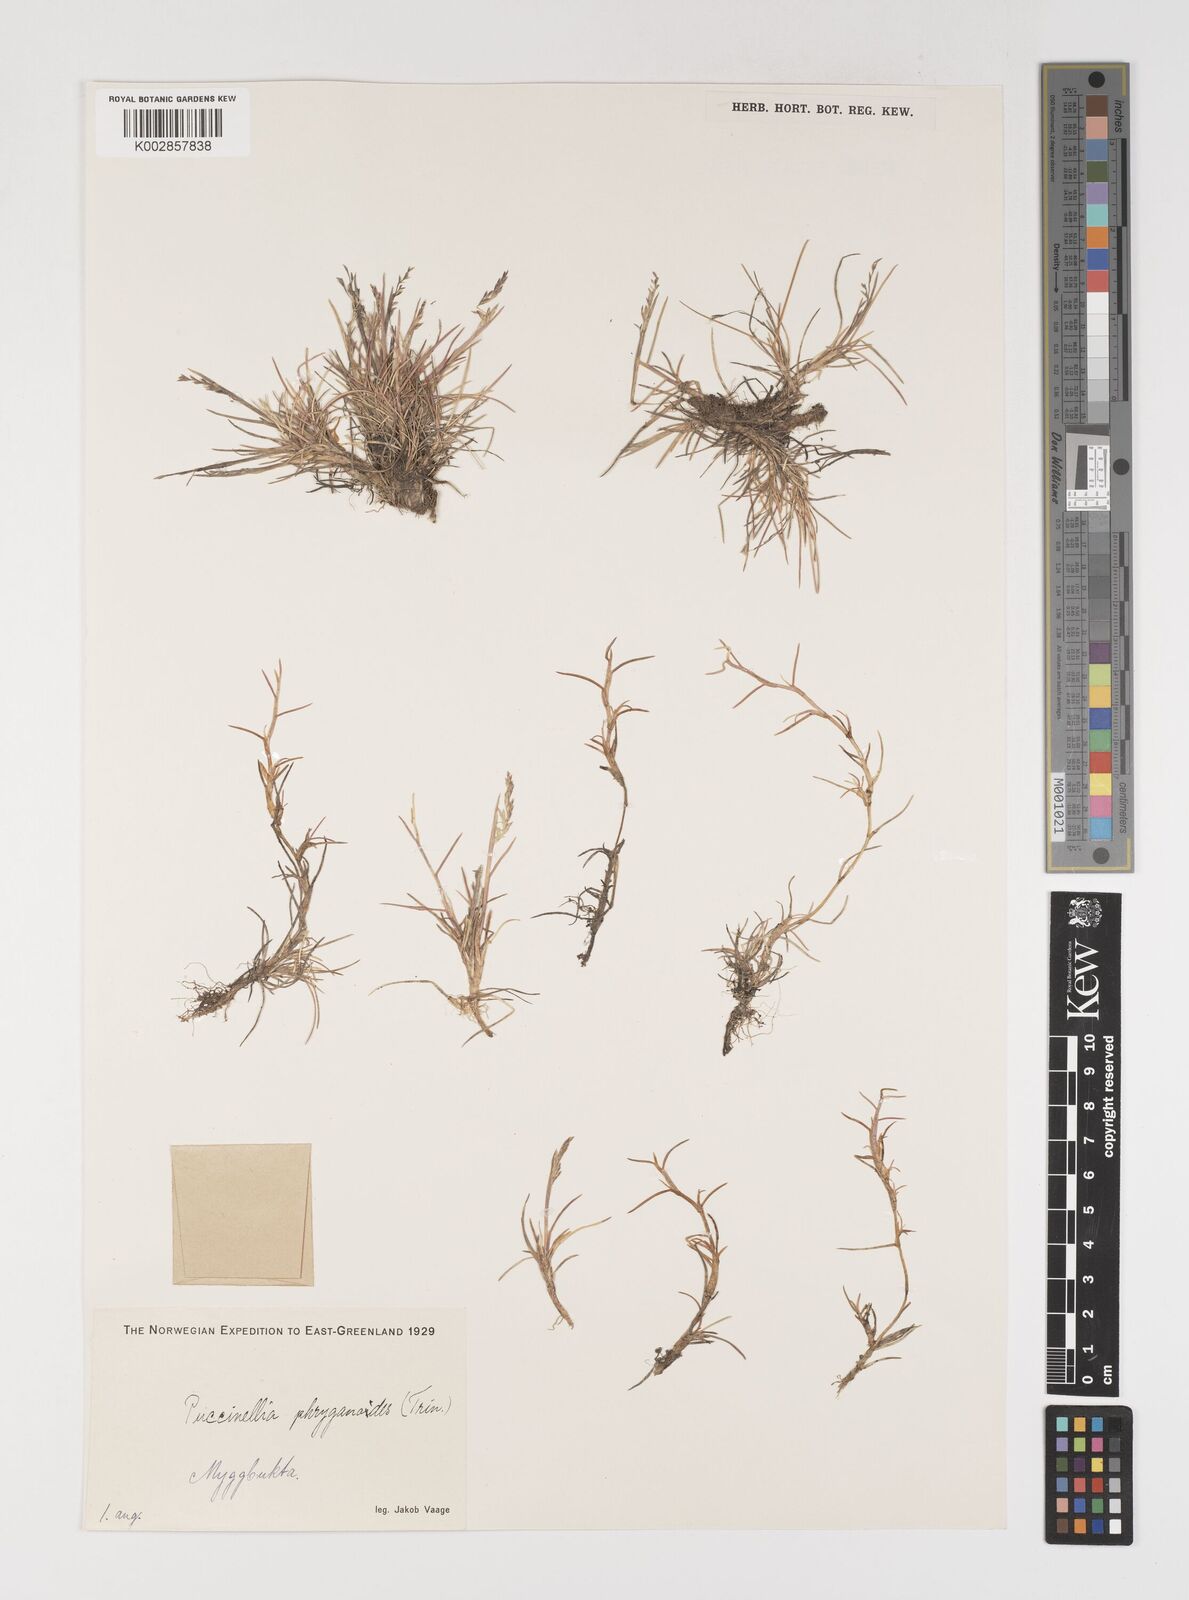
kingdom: Plantae
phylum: Tracheophyta
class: Liliopsida
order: Poales
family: Poaceae
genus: Puccinellia
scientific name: Puccinellia phryganodes
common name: Creeping alkaligrass
